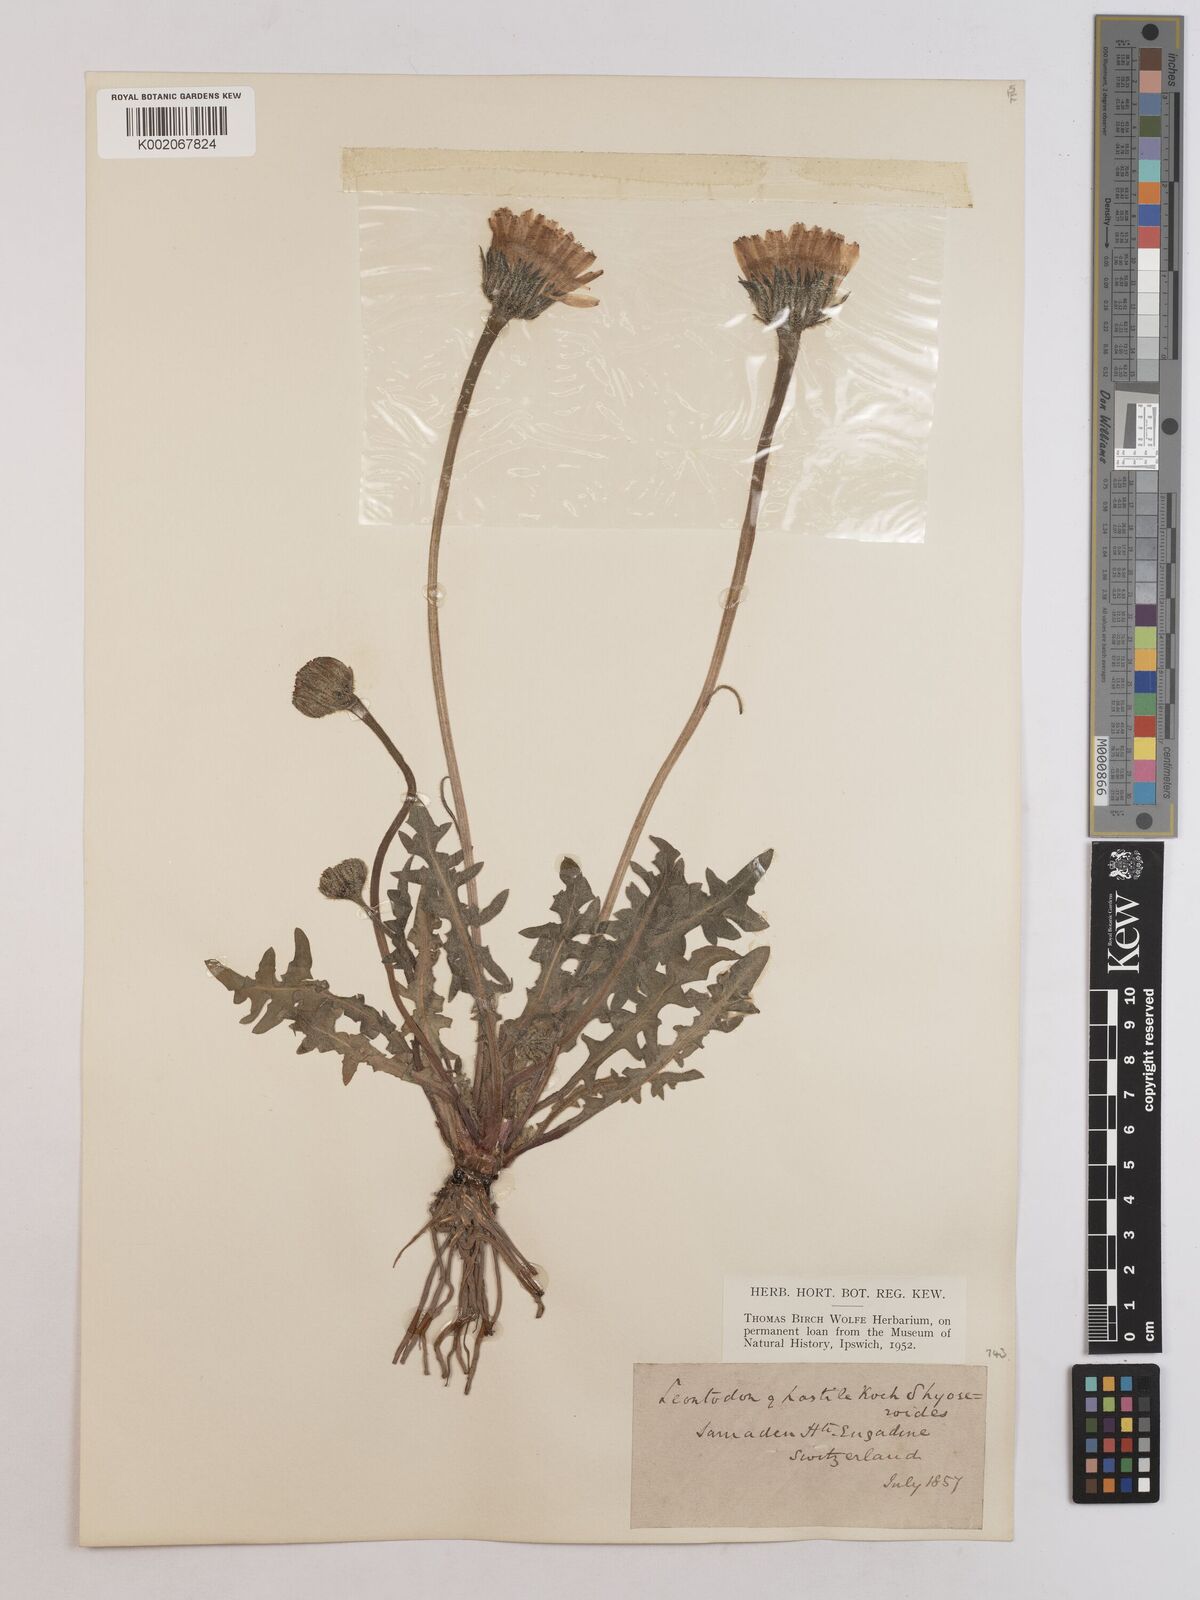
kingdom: Plantae
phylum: Tracheophyta
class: Magnoliopsida
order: Asterales
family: Asteraceae
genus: Leontodon
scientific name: Leontodon hispidus
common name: Rough hawkbit
